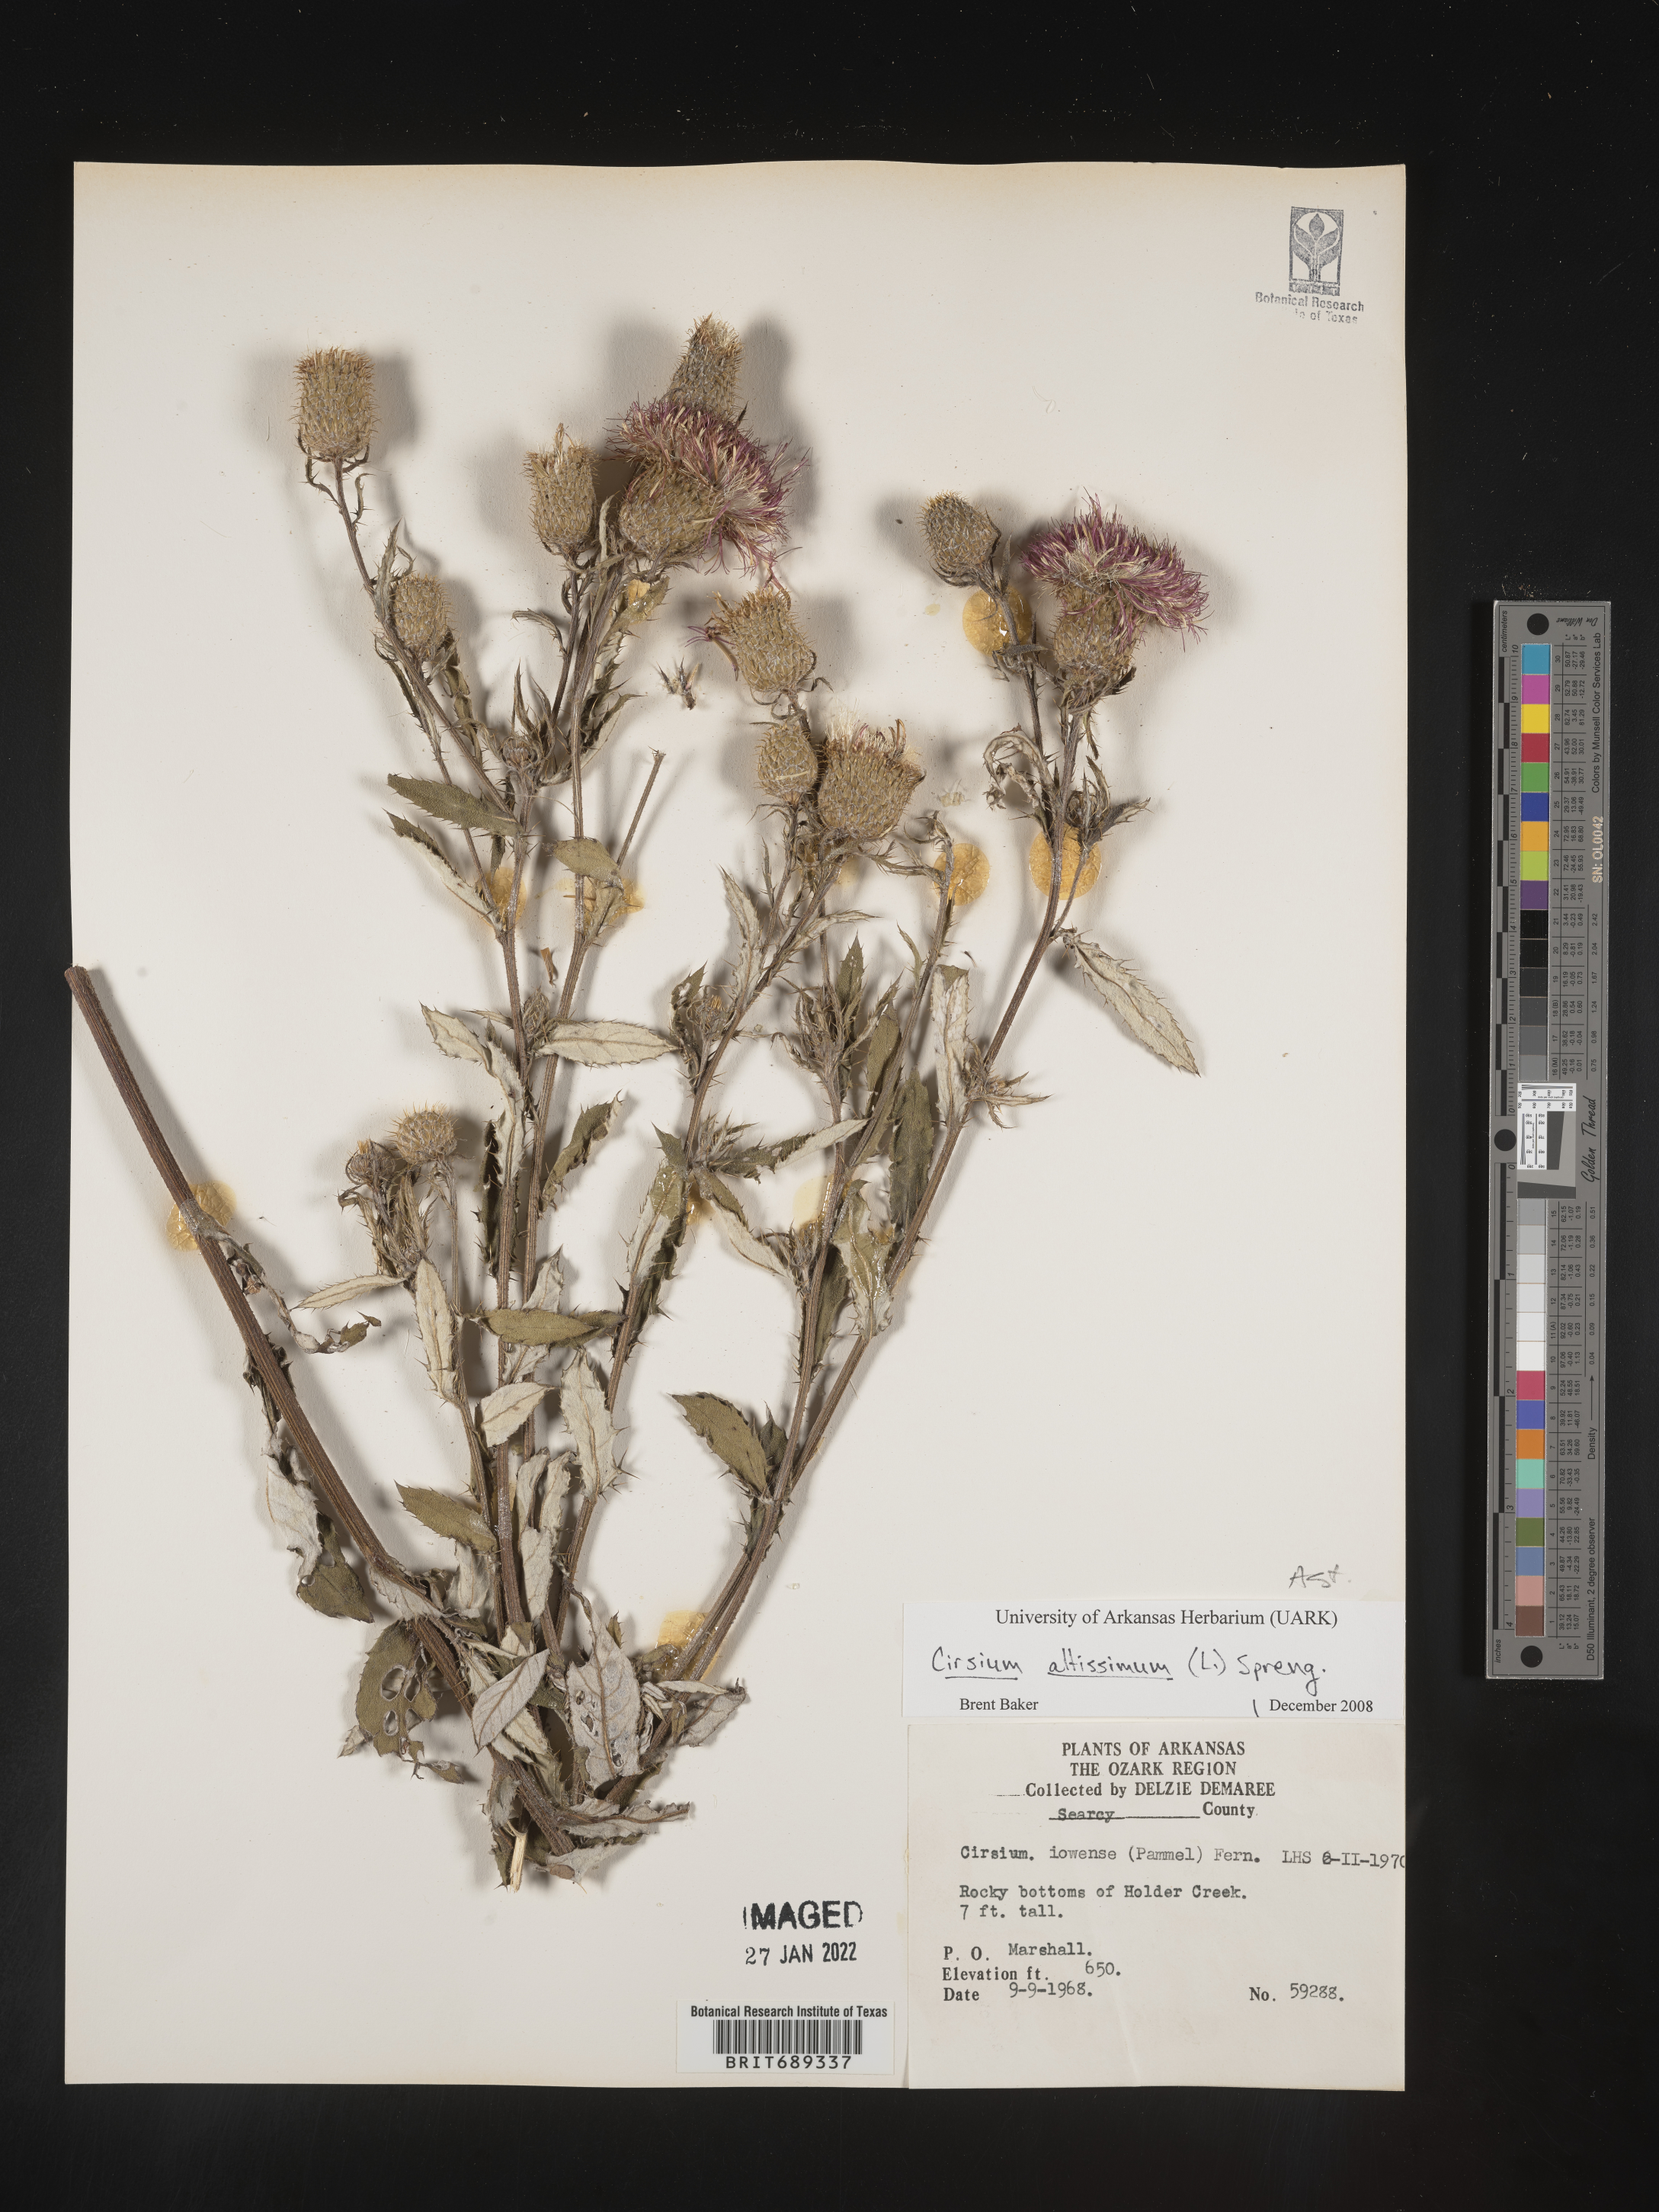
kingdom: Plantae
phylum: Tracheophyta
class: Magnoliopsida
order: Asterales
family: Asteraceae
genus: Cirsium
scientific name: Cirsium altissimum
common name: Roadside thistle
